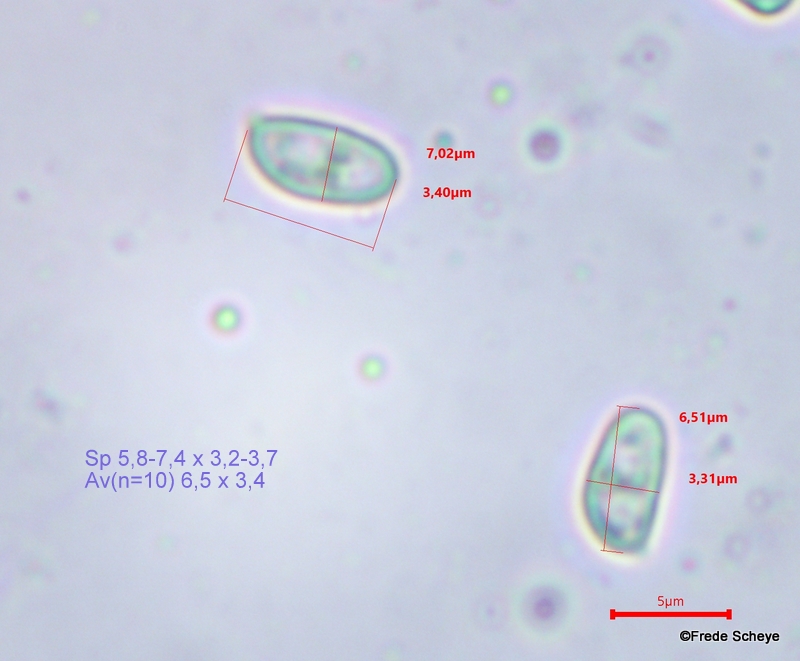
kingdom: Fungi
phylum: Basidiomycota
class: Agaricomycetes
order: Agaricales
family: Tricholomataceae
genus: Cystoderma
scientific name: Cystoderma amianthinum
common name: okkergul grynhat
